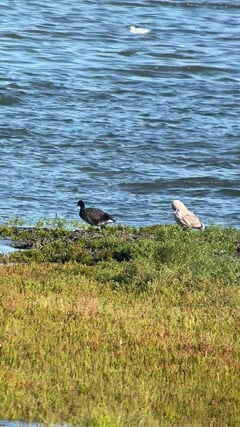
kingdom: Animalia
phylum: Chordata
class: Aves
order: Anseriformes
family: Anatidae
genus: Branta
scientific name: Branta bernicla
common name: Brant goose
